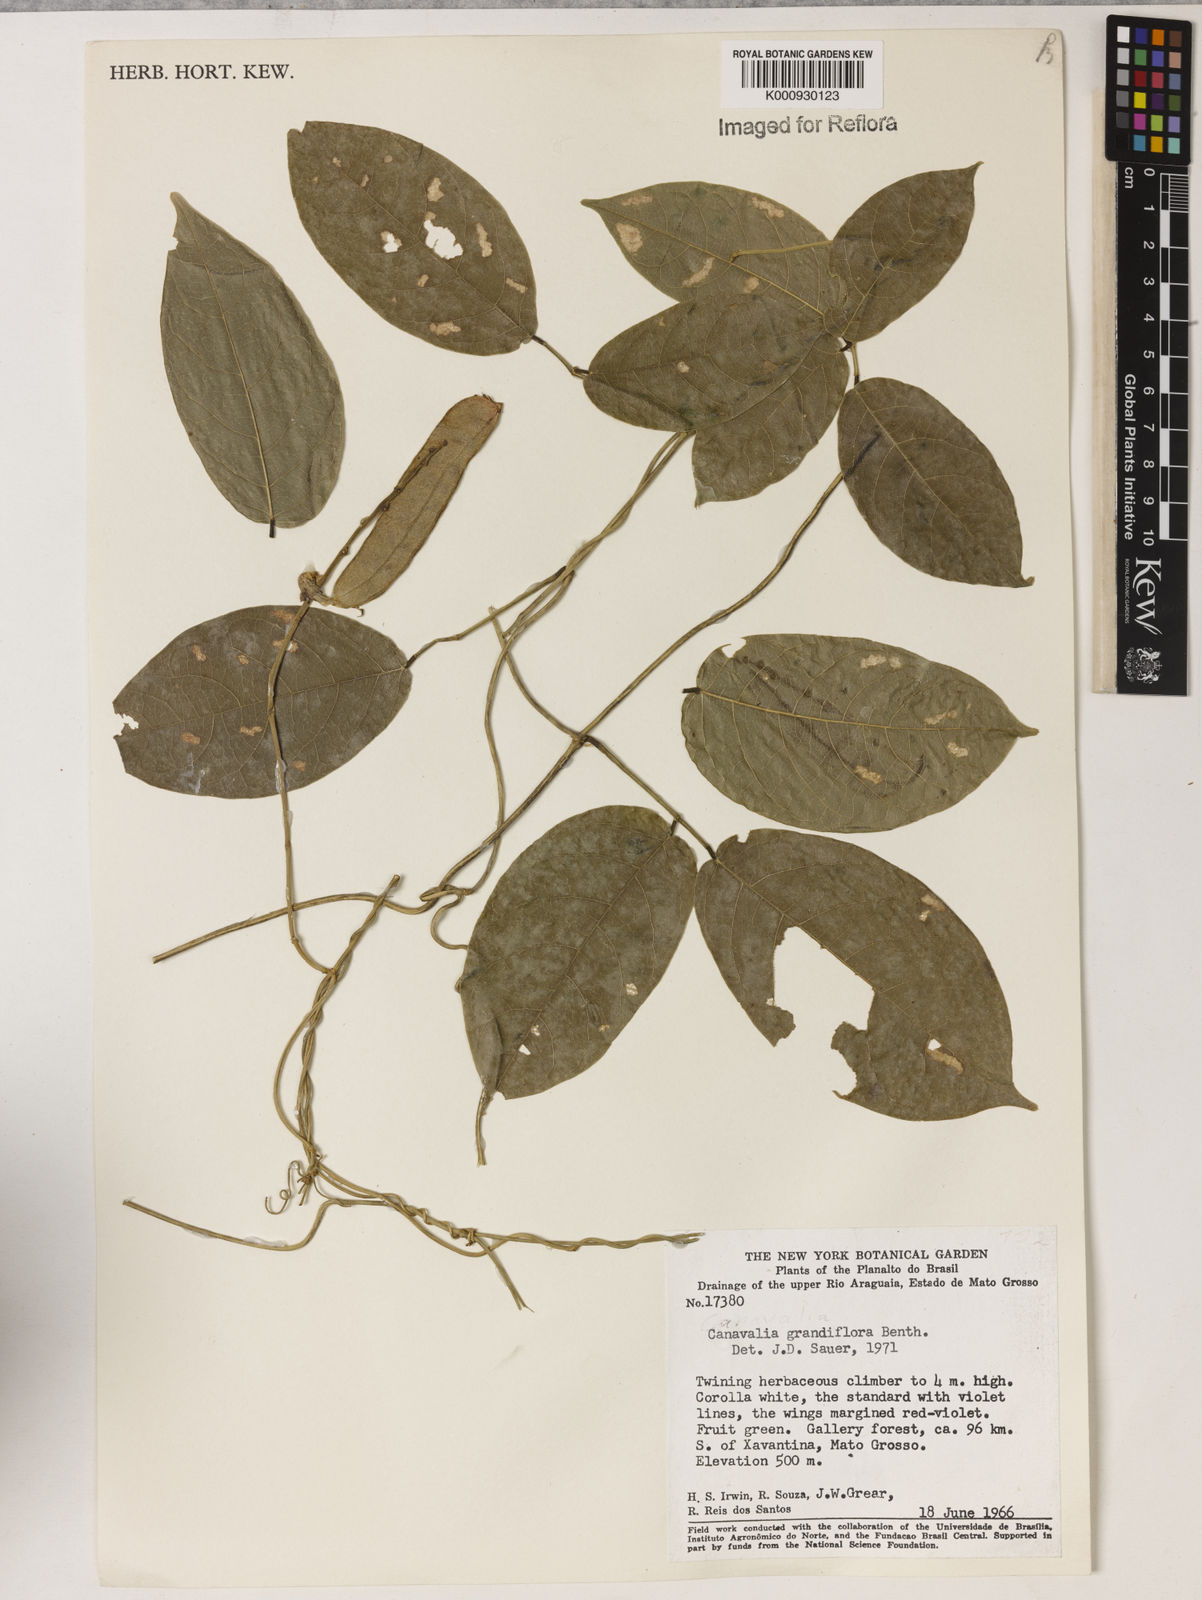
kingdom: Plantae
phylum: Tracheophyta
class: Magnoliopsida
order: Fabales
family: Fabaceae
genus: Canavalia
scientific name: Canavalia grandiflora
